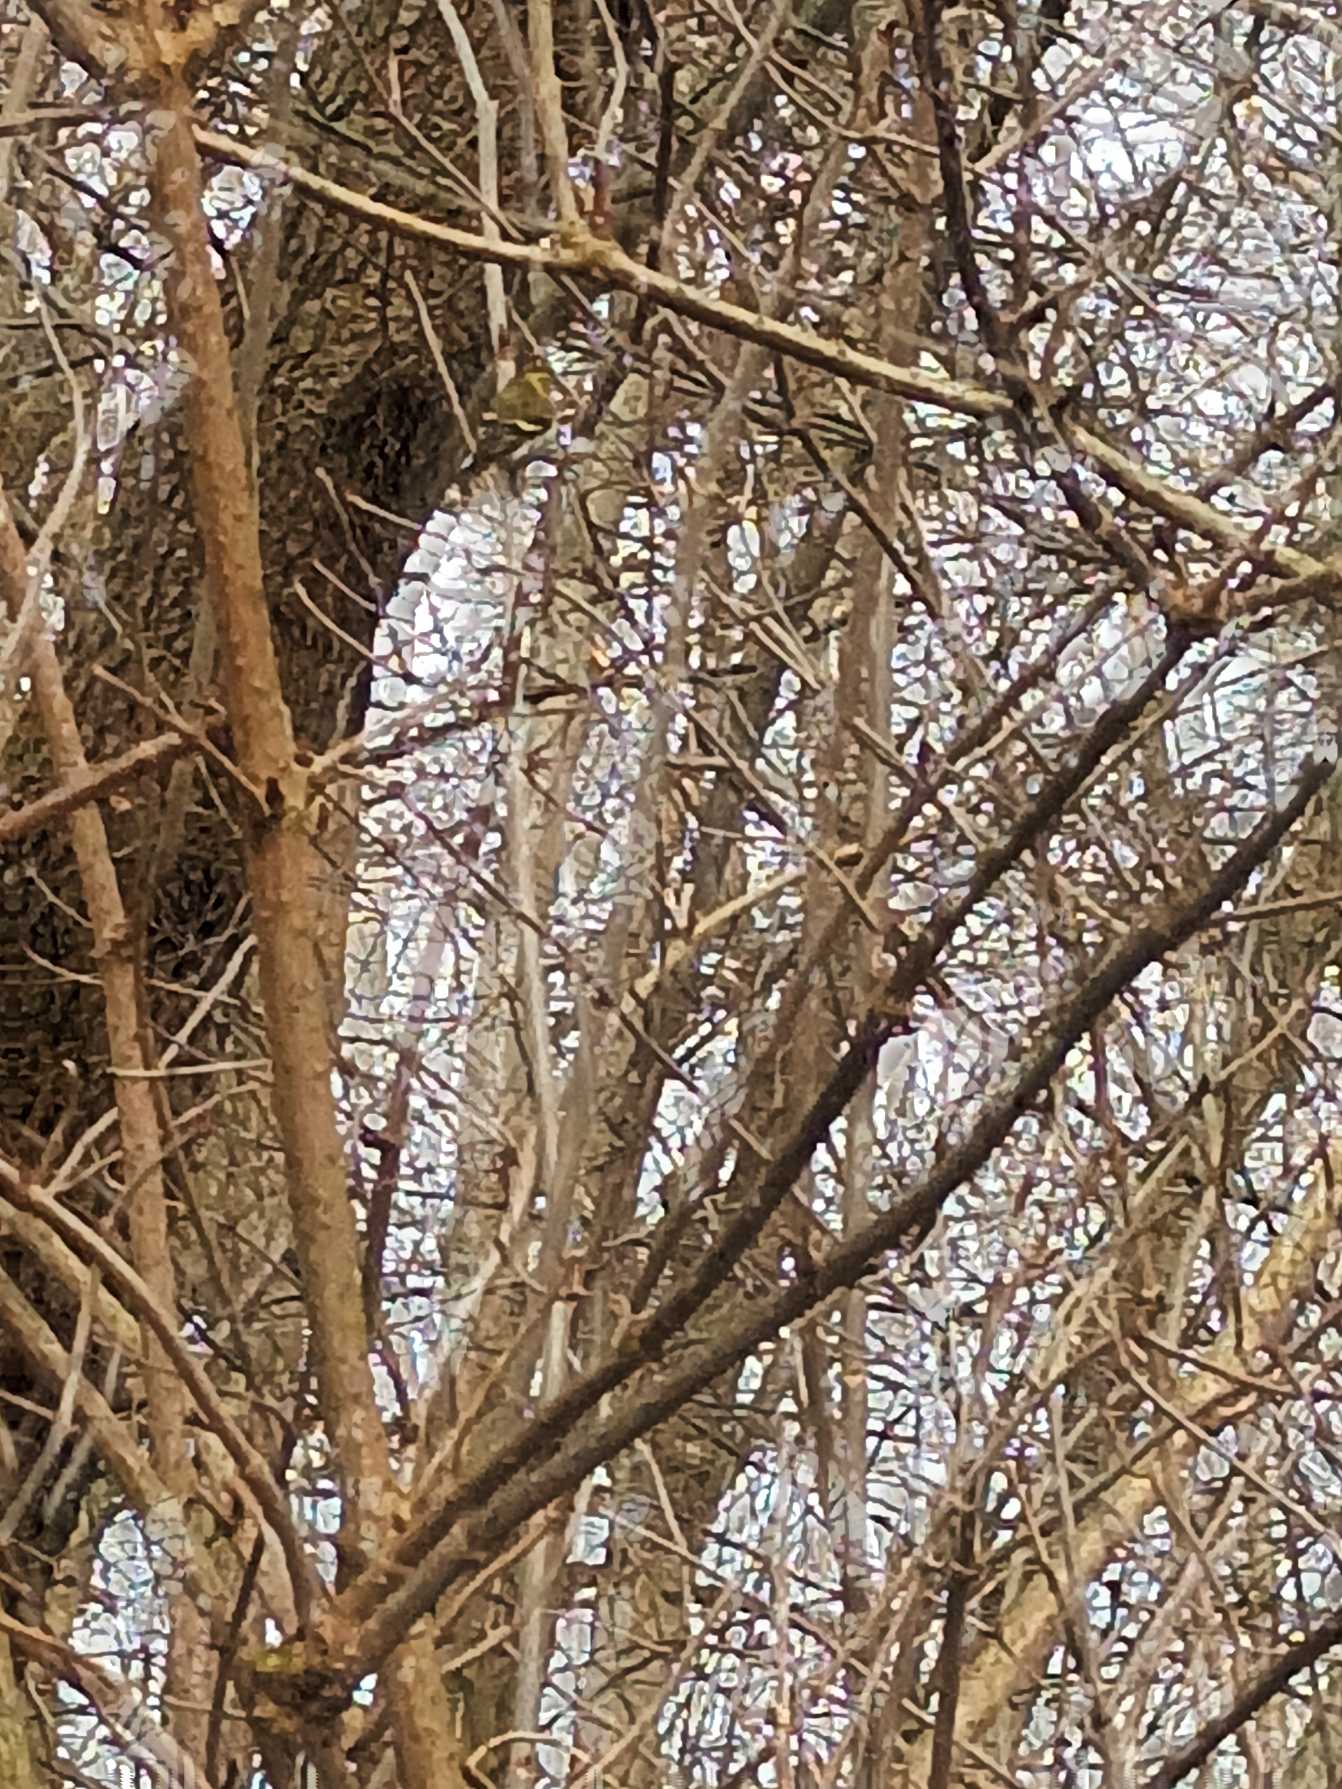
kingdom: Animalia
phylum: Chordata
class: Aves
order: Passeriformes
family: Fringillidae
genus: Spinus
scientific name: Spinus spinus
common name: Grønsisken
